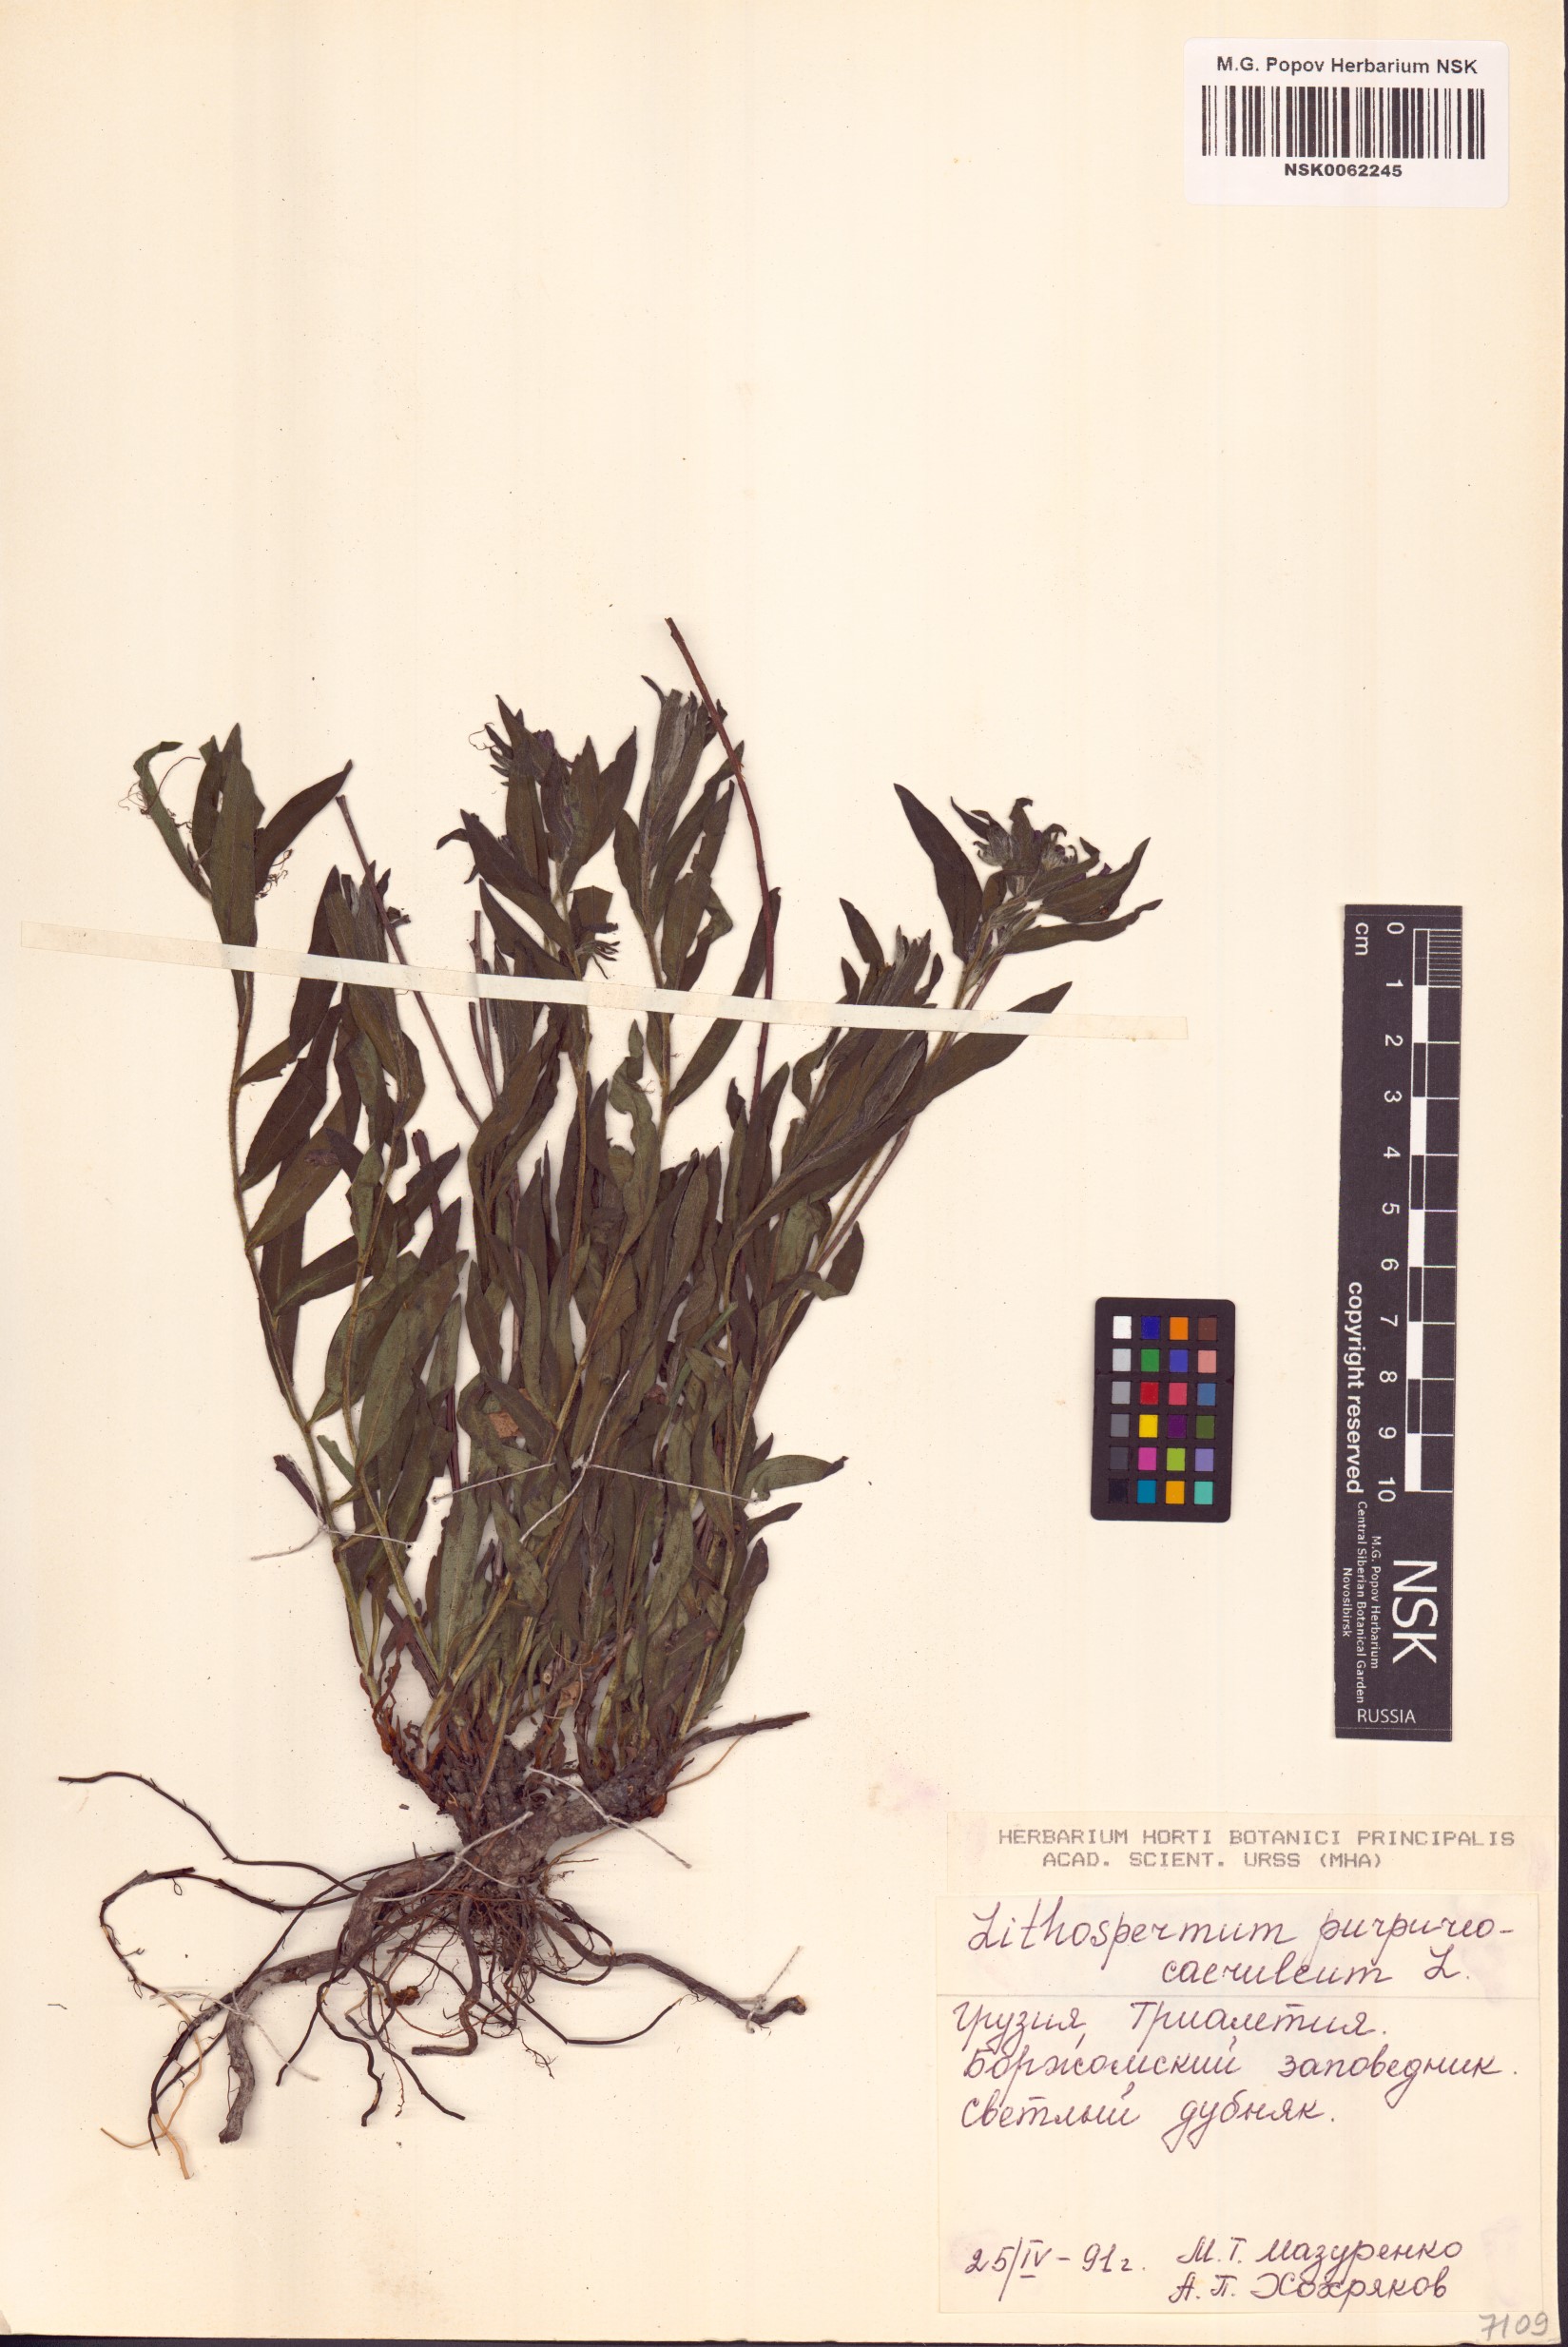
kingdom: Plantae
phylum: Tracheophyta
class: Magnoliopsida
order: Boraginales
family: Boraginaceae
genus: Aegonychon
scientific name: Aegonychon purpurocaeruleum
